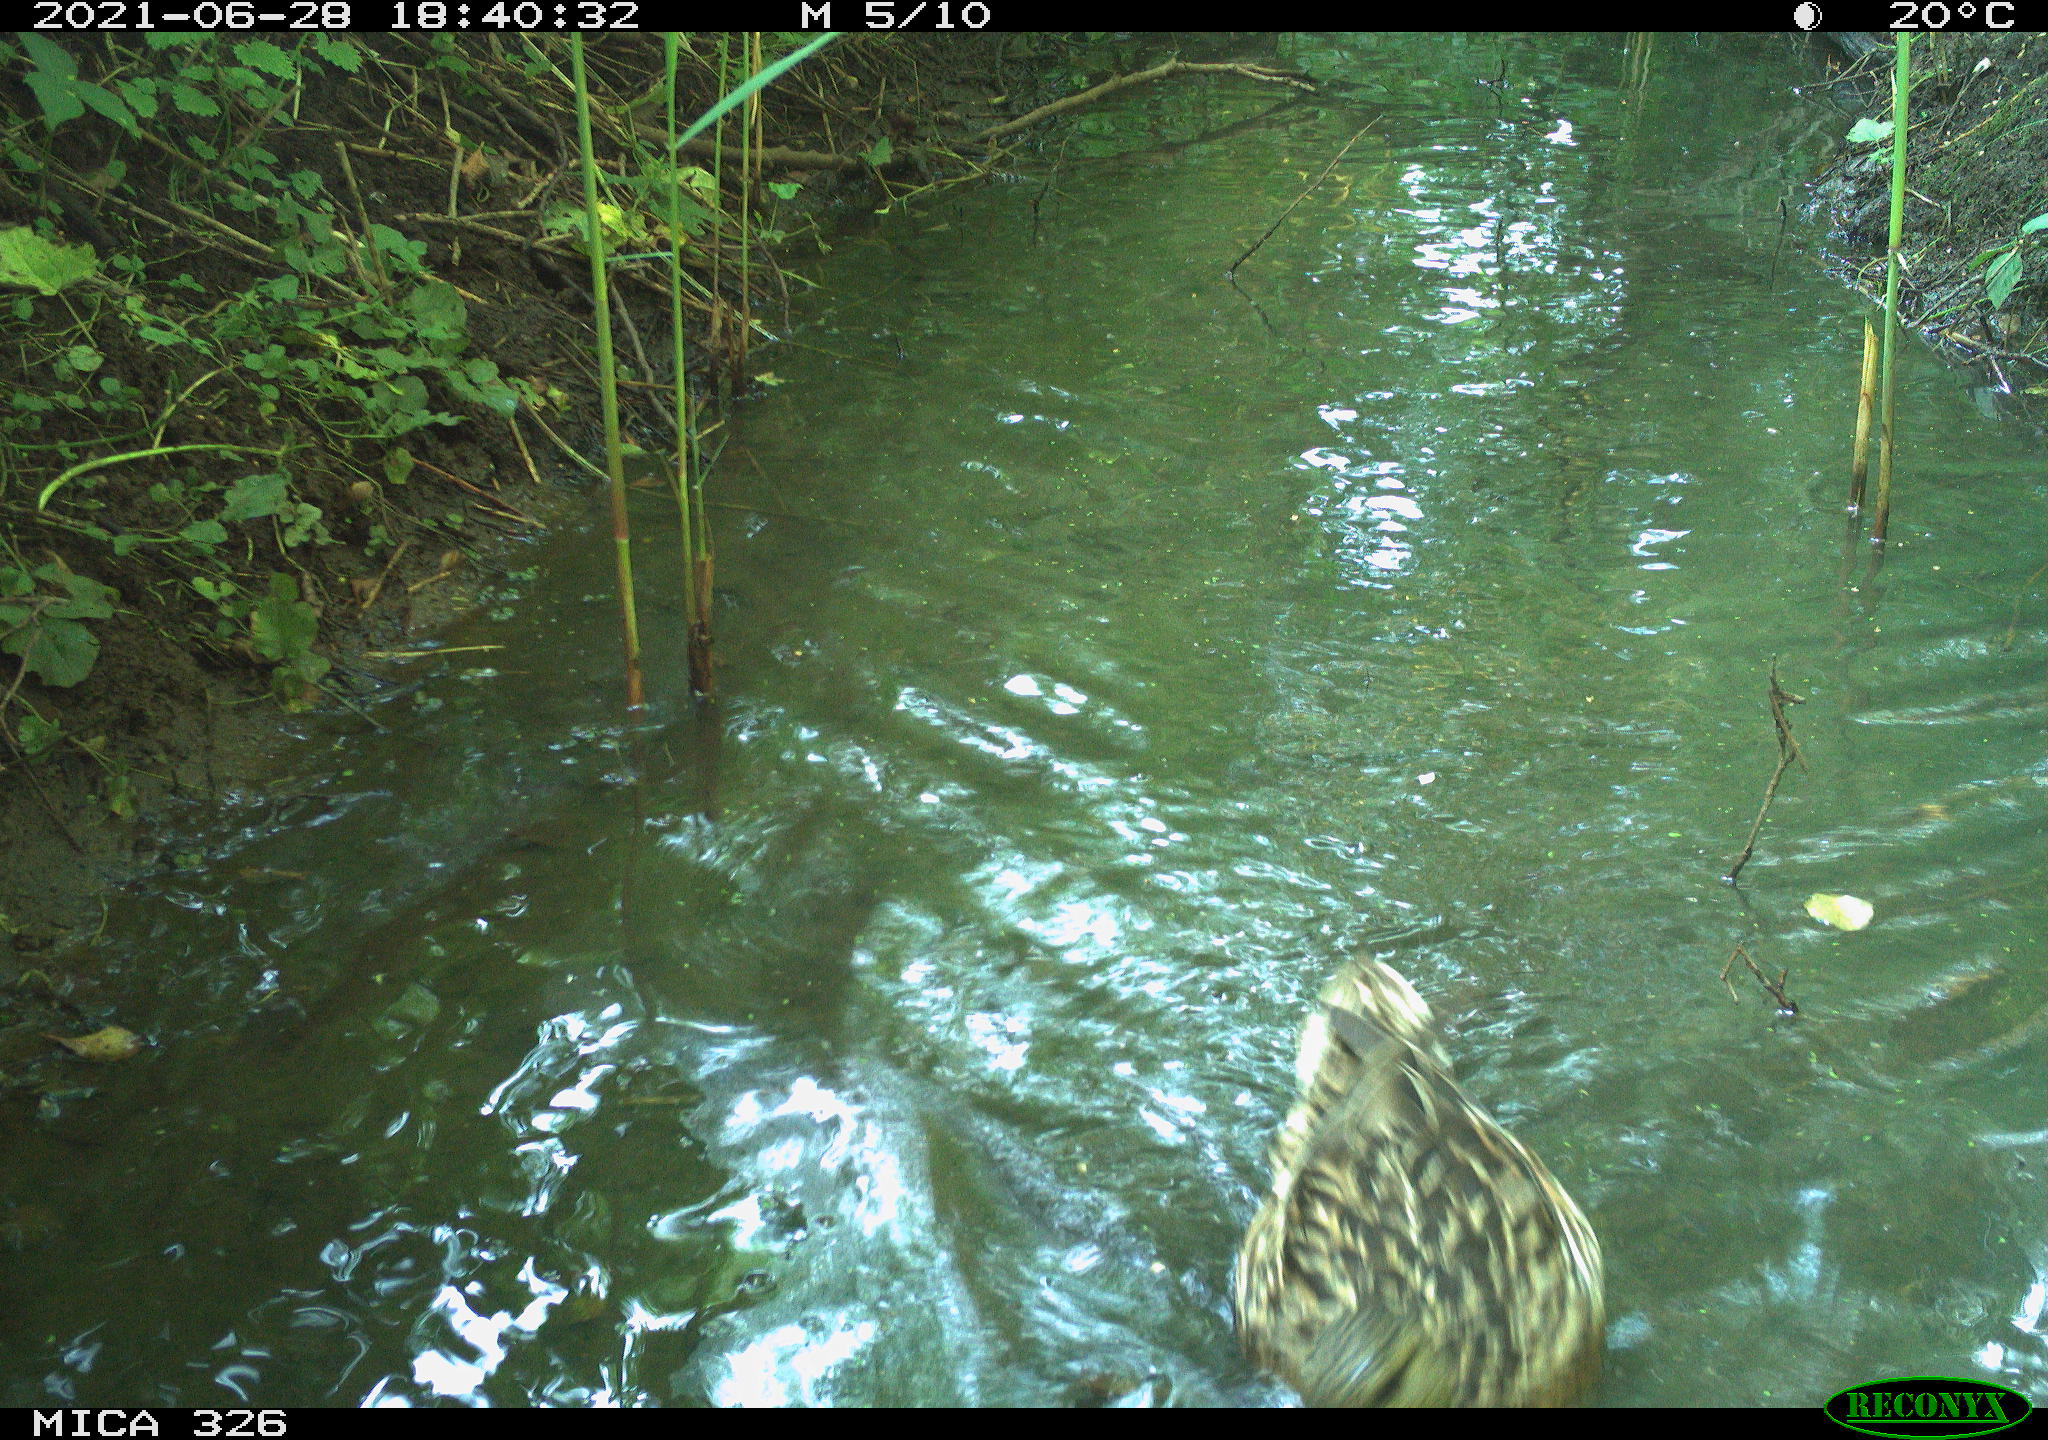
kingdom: Animalia
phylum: Chordata
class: Aves
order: Anseriformes
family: Anatidae
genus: Anas
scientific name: Anas platyrhynchos
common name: Mallard
